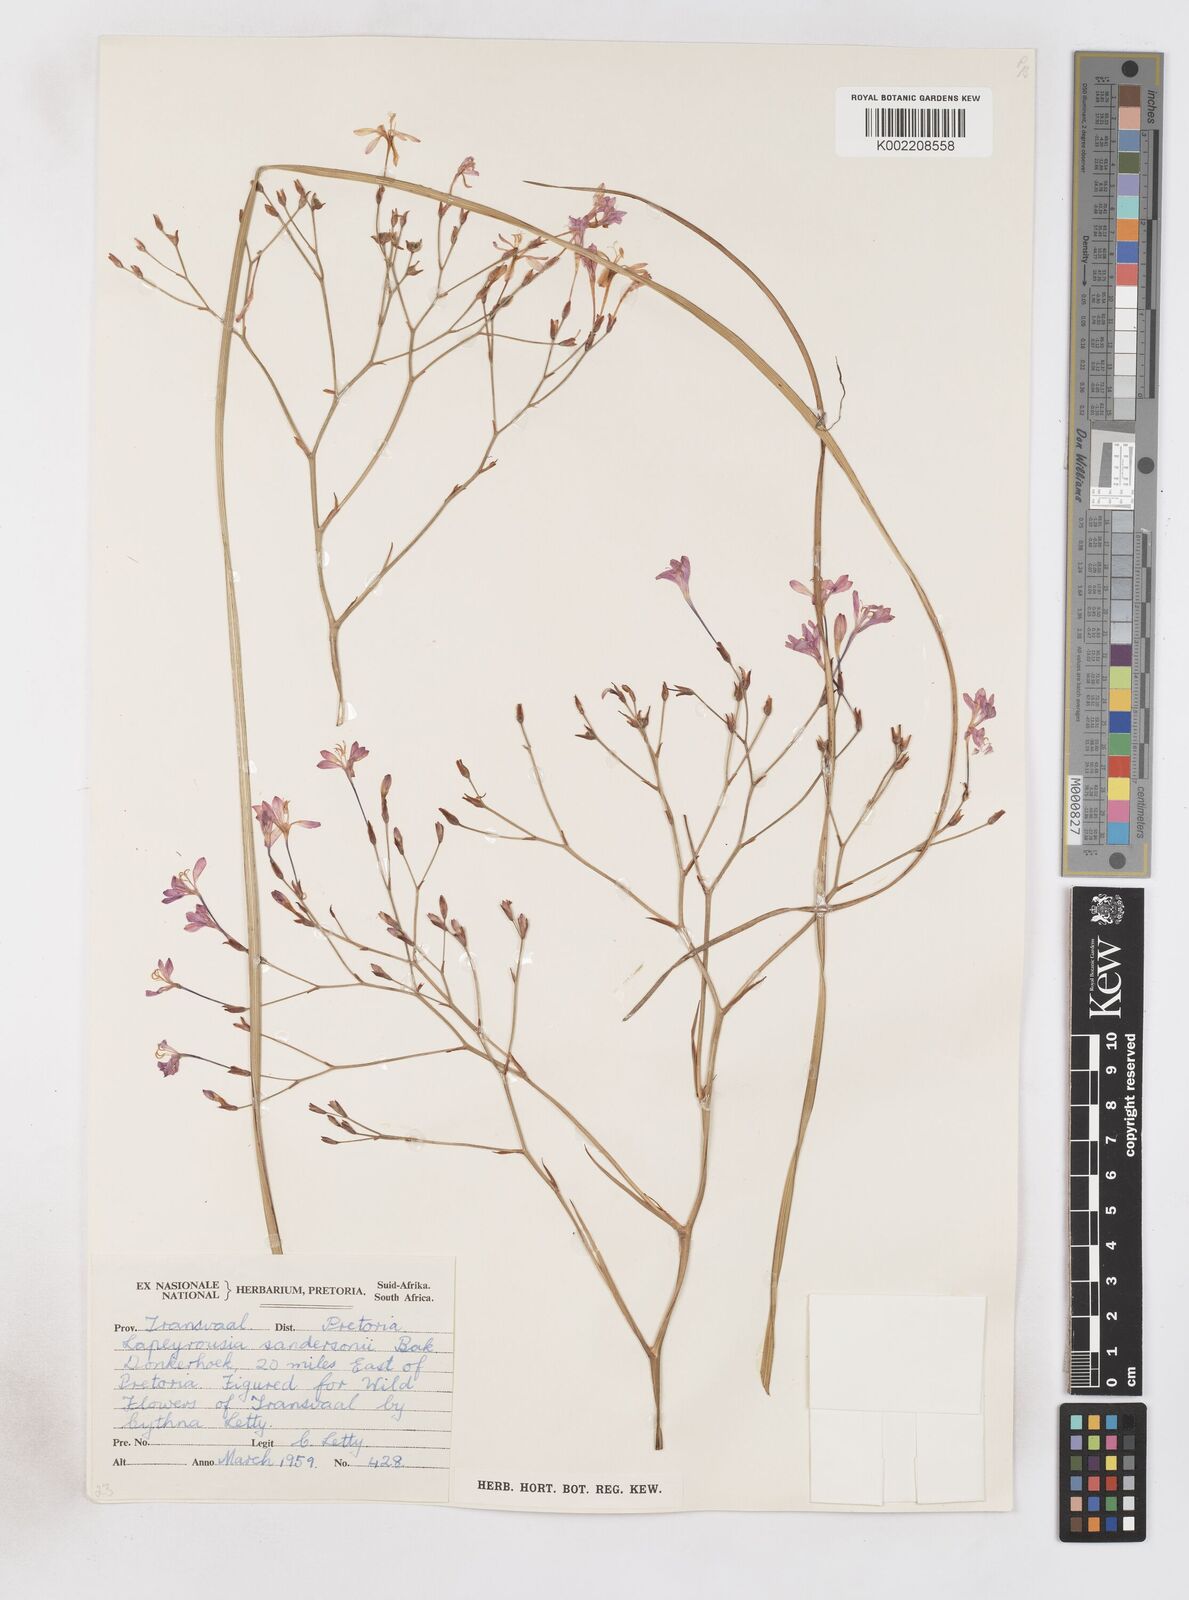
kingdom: Plantae
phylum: Tracheophyta
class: Liliopsida
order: Asparagales
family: Iridaceae
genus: Afrosolen
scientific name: Afrosolen sandersonii
